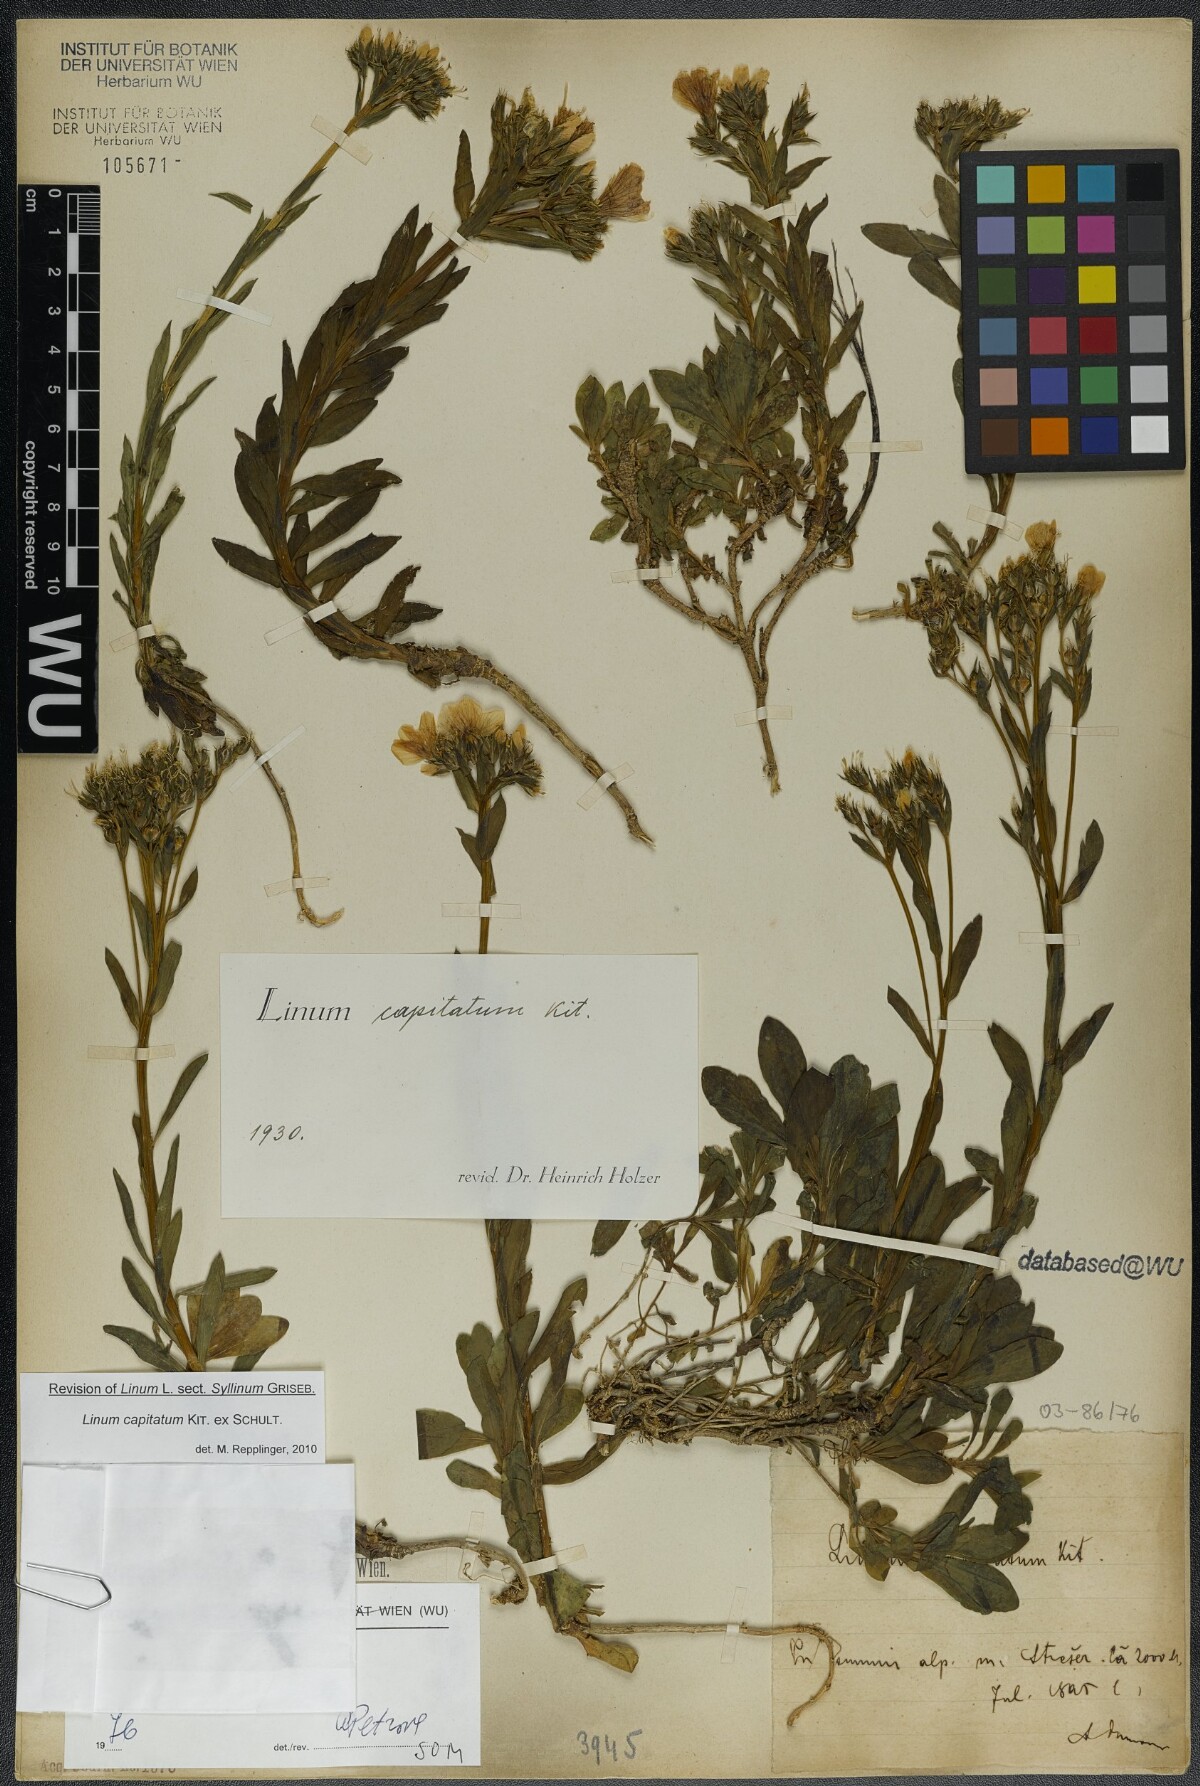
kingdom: Plantae
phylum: Tracheophyta
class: Magnoliopsida
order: Malpighiales
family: Linaceae
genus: Linum
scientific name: Linum capitatum
